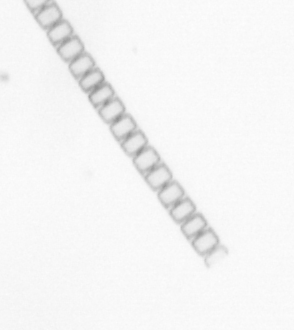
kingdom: Chromista
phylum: Ochrophyta
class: Bacillariophyceae
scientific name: Bacillariophyceae
